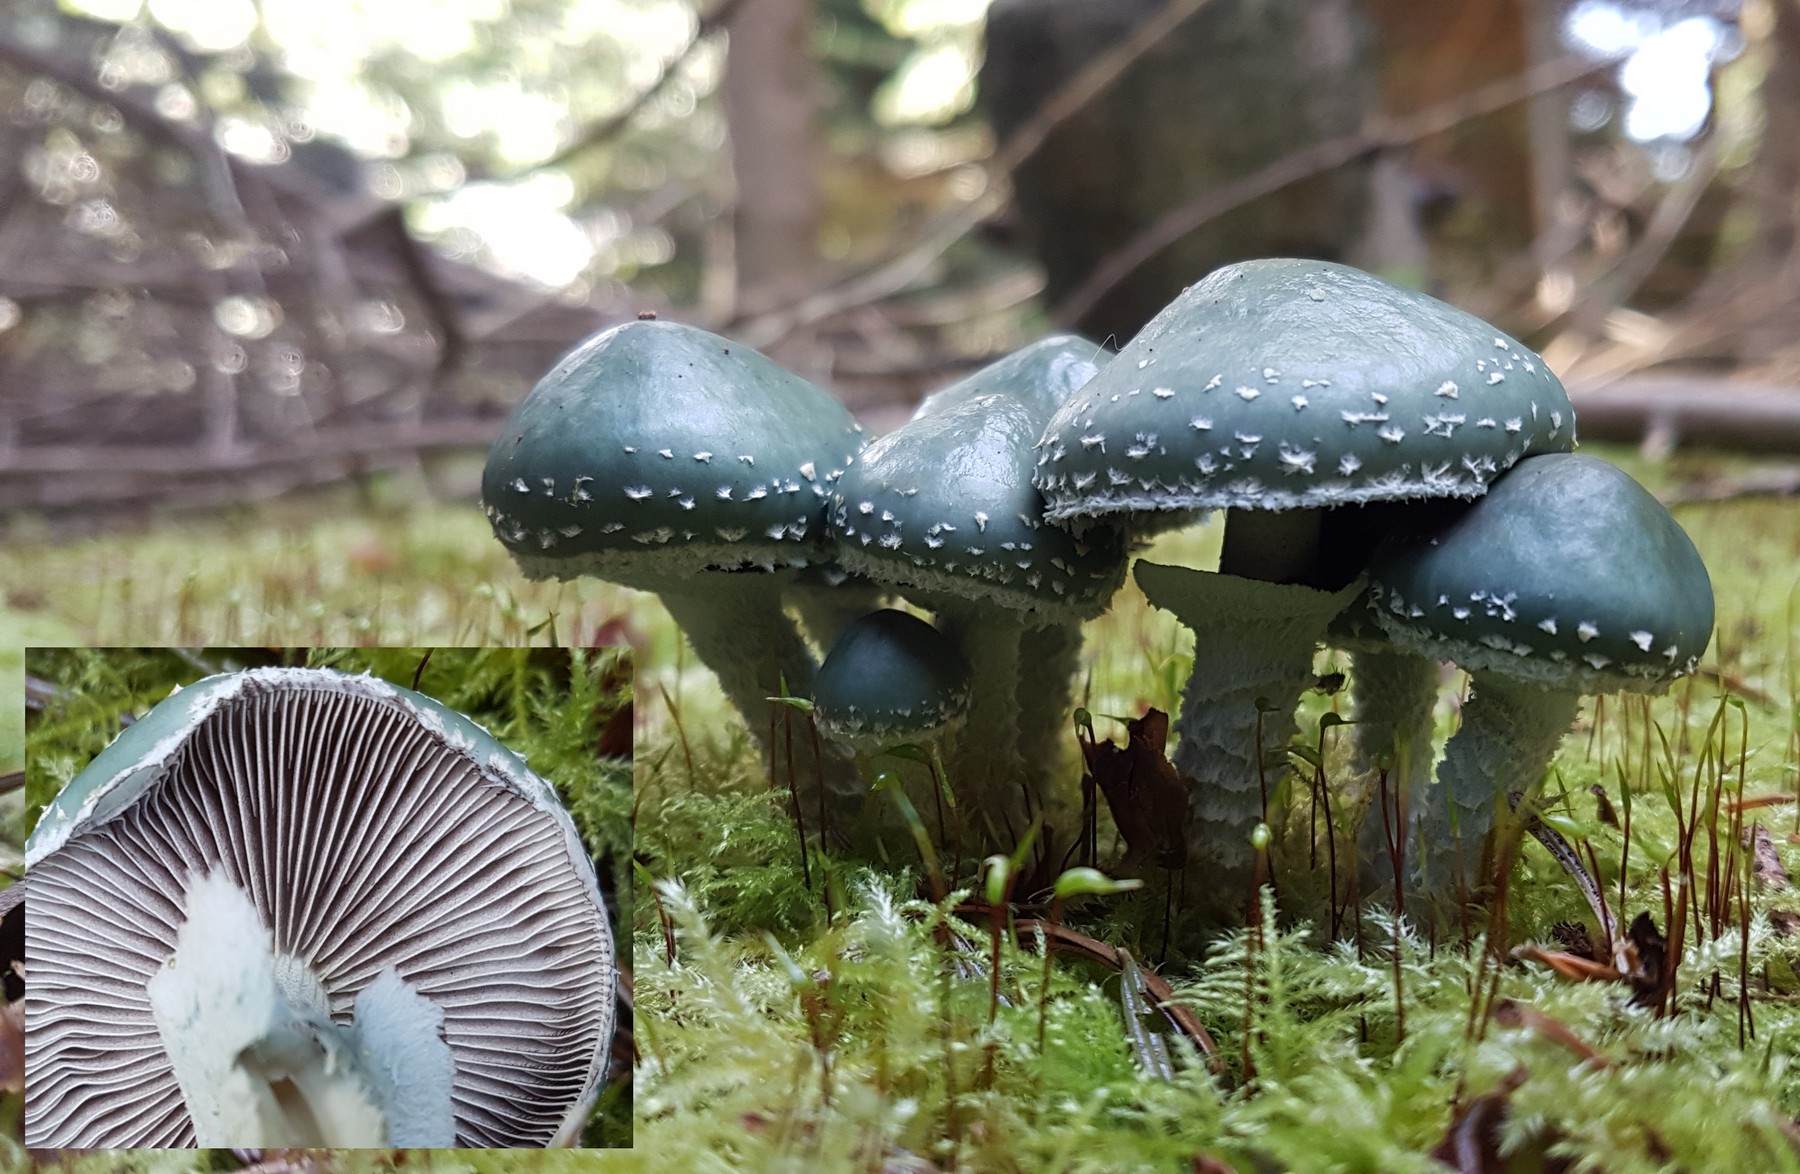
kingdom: Fungi
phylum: Basidiomycota
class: Agaricomycetes
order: Agaricales
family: Strophariaceae
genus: Stropharia
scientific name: Stropharia aeruginosa
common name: spanskgrøn bredblad
